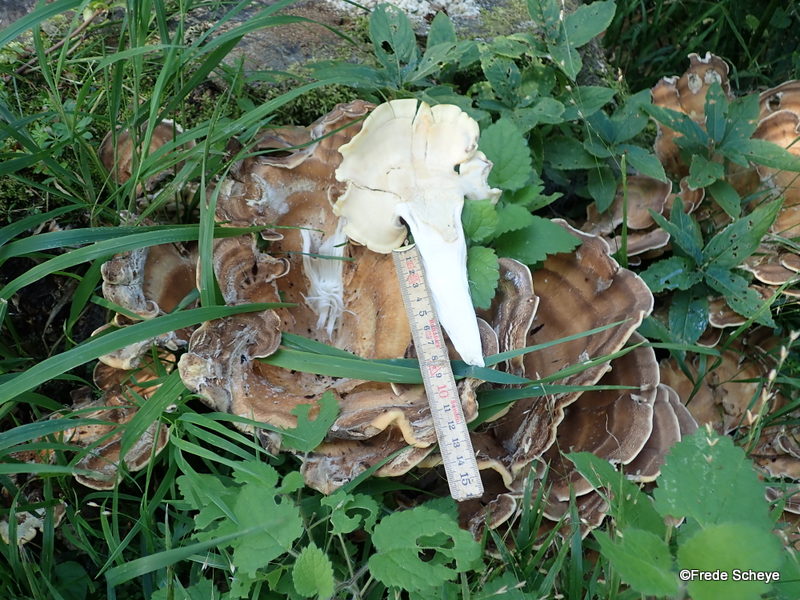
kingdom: Fungi
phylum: Basidiomycota
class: Agaricomycetes
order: Polyporales
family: Meripilaceae
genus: Meripilus
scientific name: Meripilus giganteus
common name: kæmpeporesvamp
